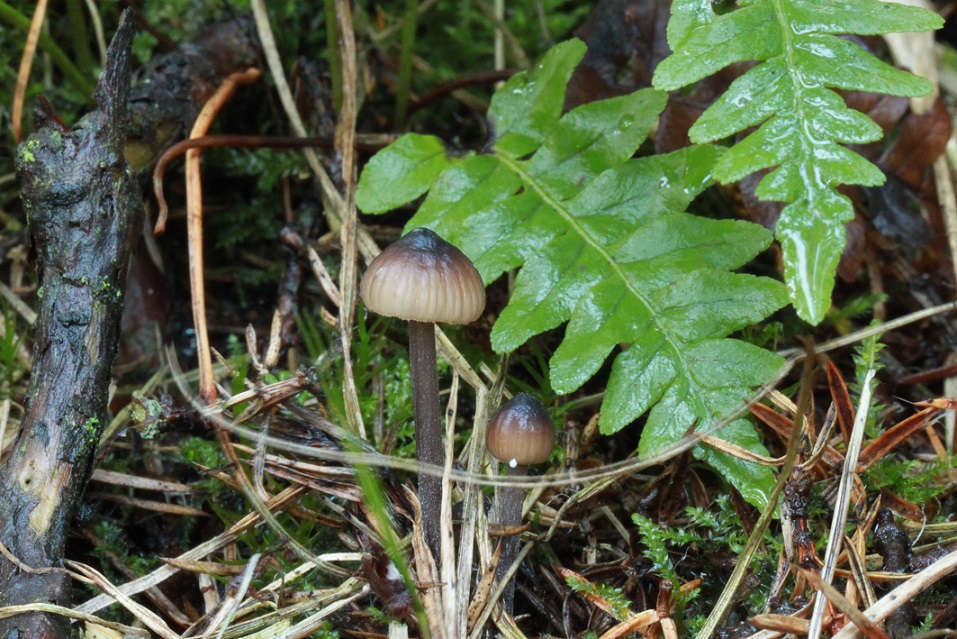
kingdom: Fungi
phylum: Basidiomycota
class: Agaricomycetes
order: Agaricales
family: Mycenaceae
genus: Mycena
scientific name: Mycena galopus
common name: hvidmælket huesvamp
